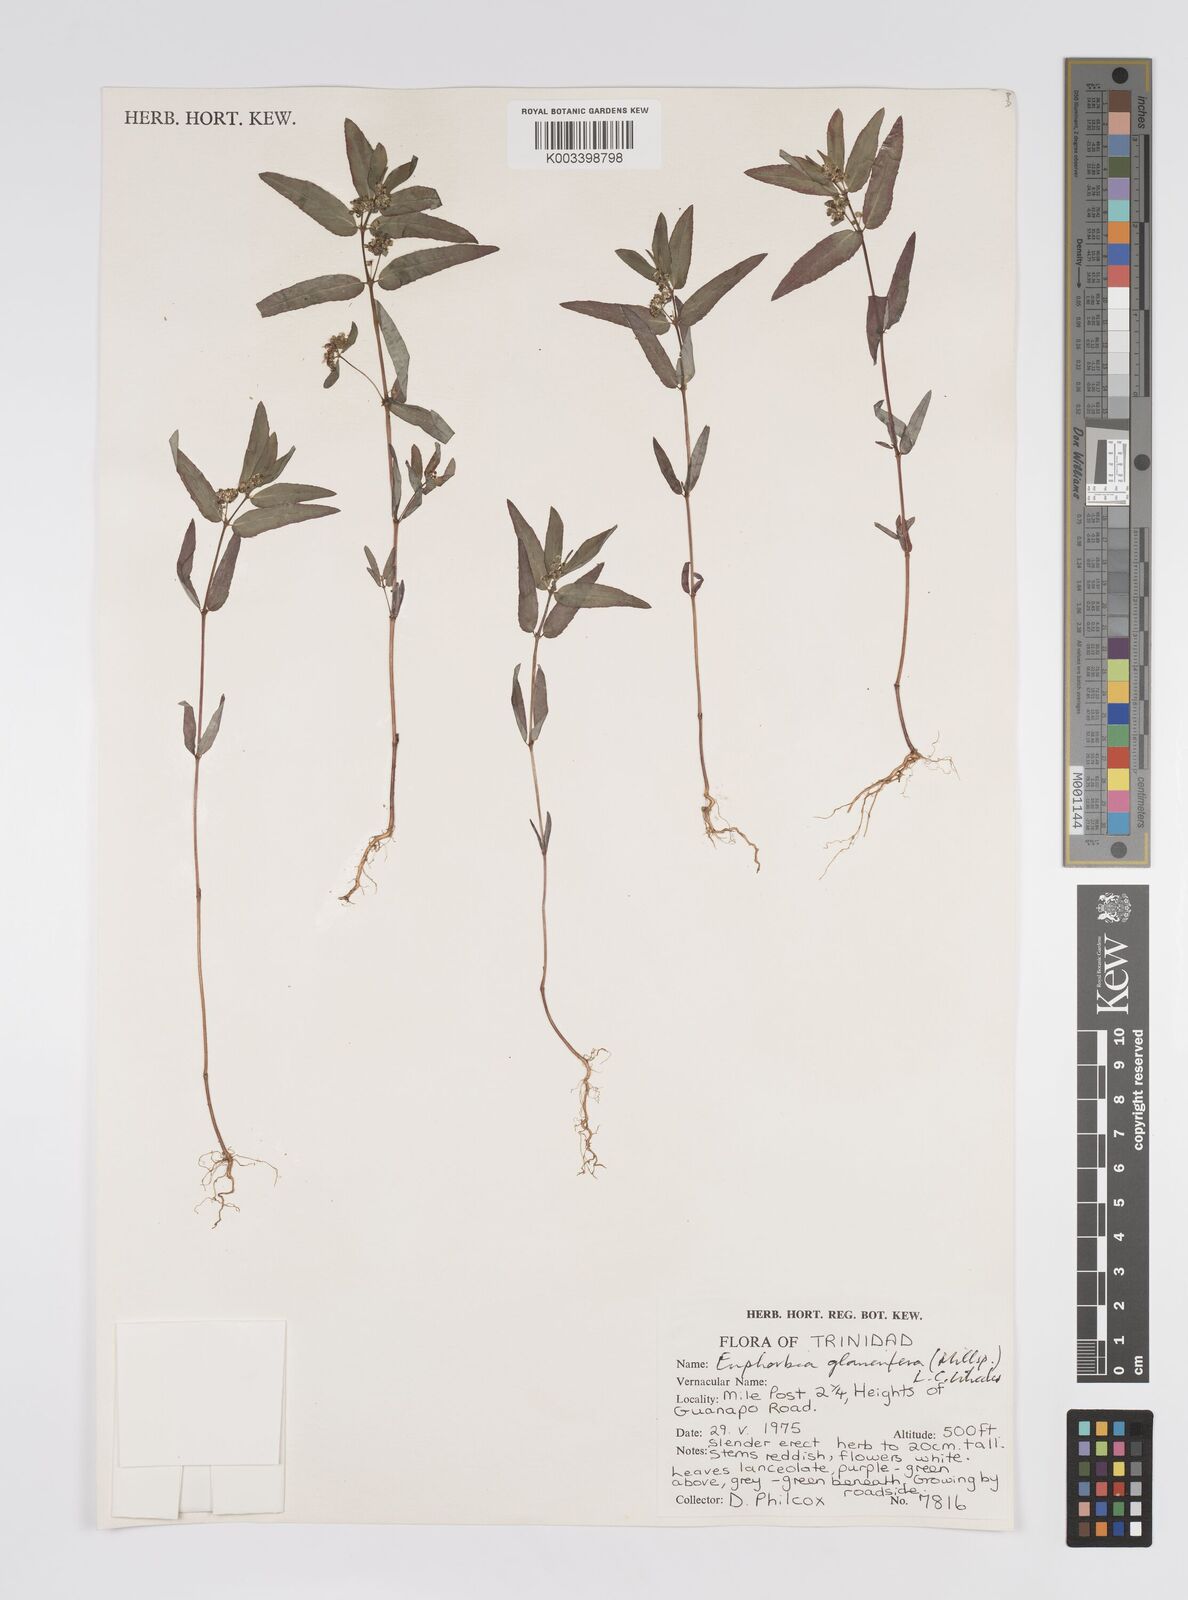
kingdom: Plantae
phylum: Tracheophyta
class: Magnoliopsida
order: Malpighiales
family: Euphorbiaceae
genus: Euphorbia
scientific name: Euphorbia hypericifolia
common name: Graceful sandmat
